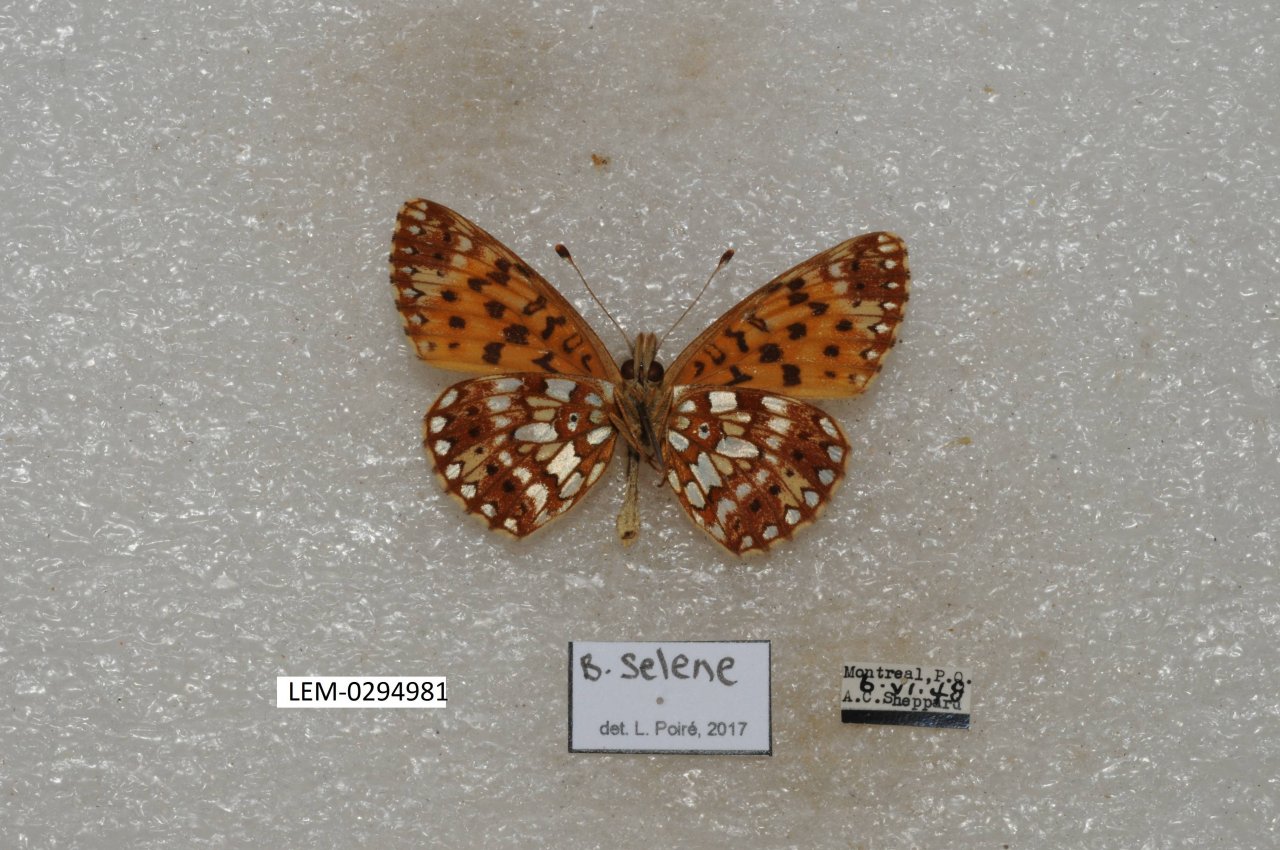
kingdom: Animalia
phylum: Arthropoda
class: Insecta
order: Lepidoptera
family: Nymphalidae
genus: Boloria
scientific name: Boloria selene
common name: Silver-bordered Fritillary
